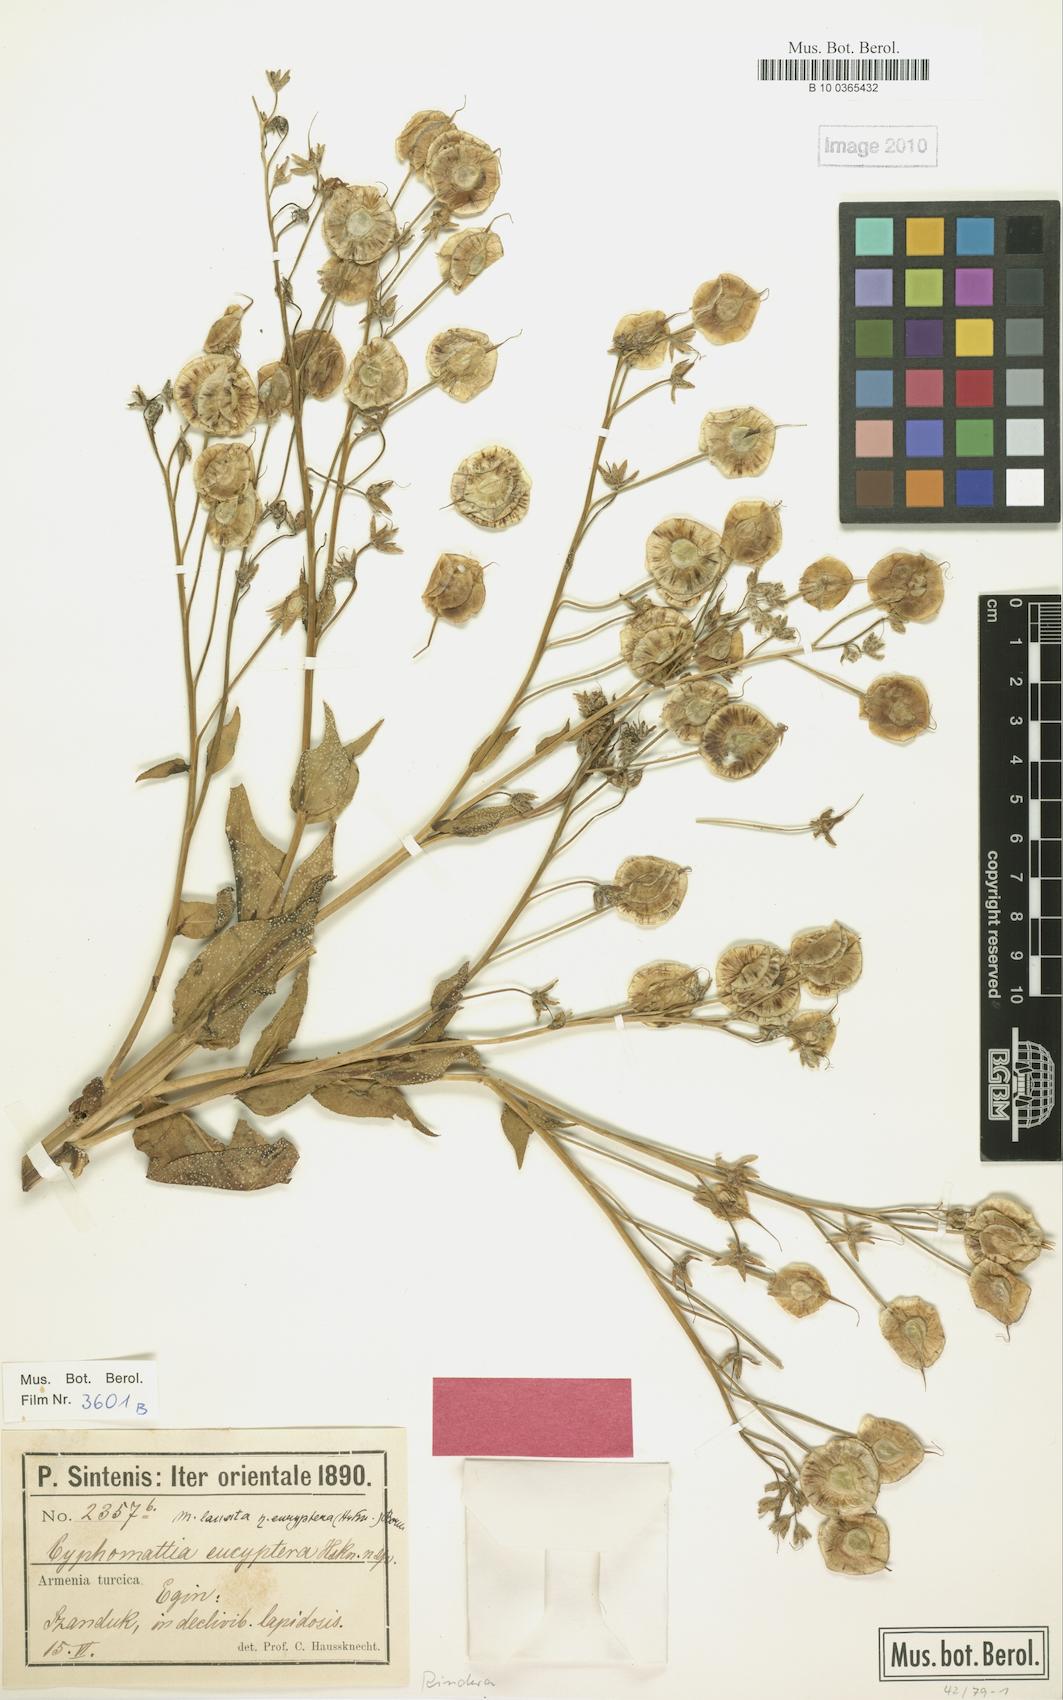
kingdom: Plantae
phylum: Tracheophyta
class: Magnoliopsida
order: Boraginales
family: Boraginaceae
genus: Rindera
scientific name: Rindera lanata
